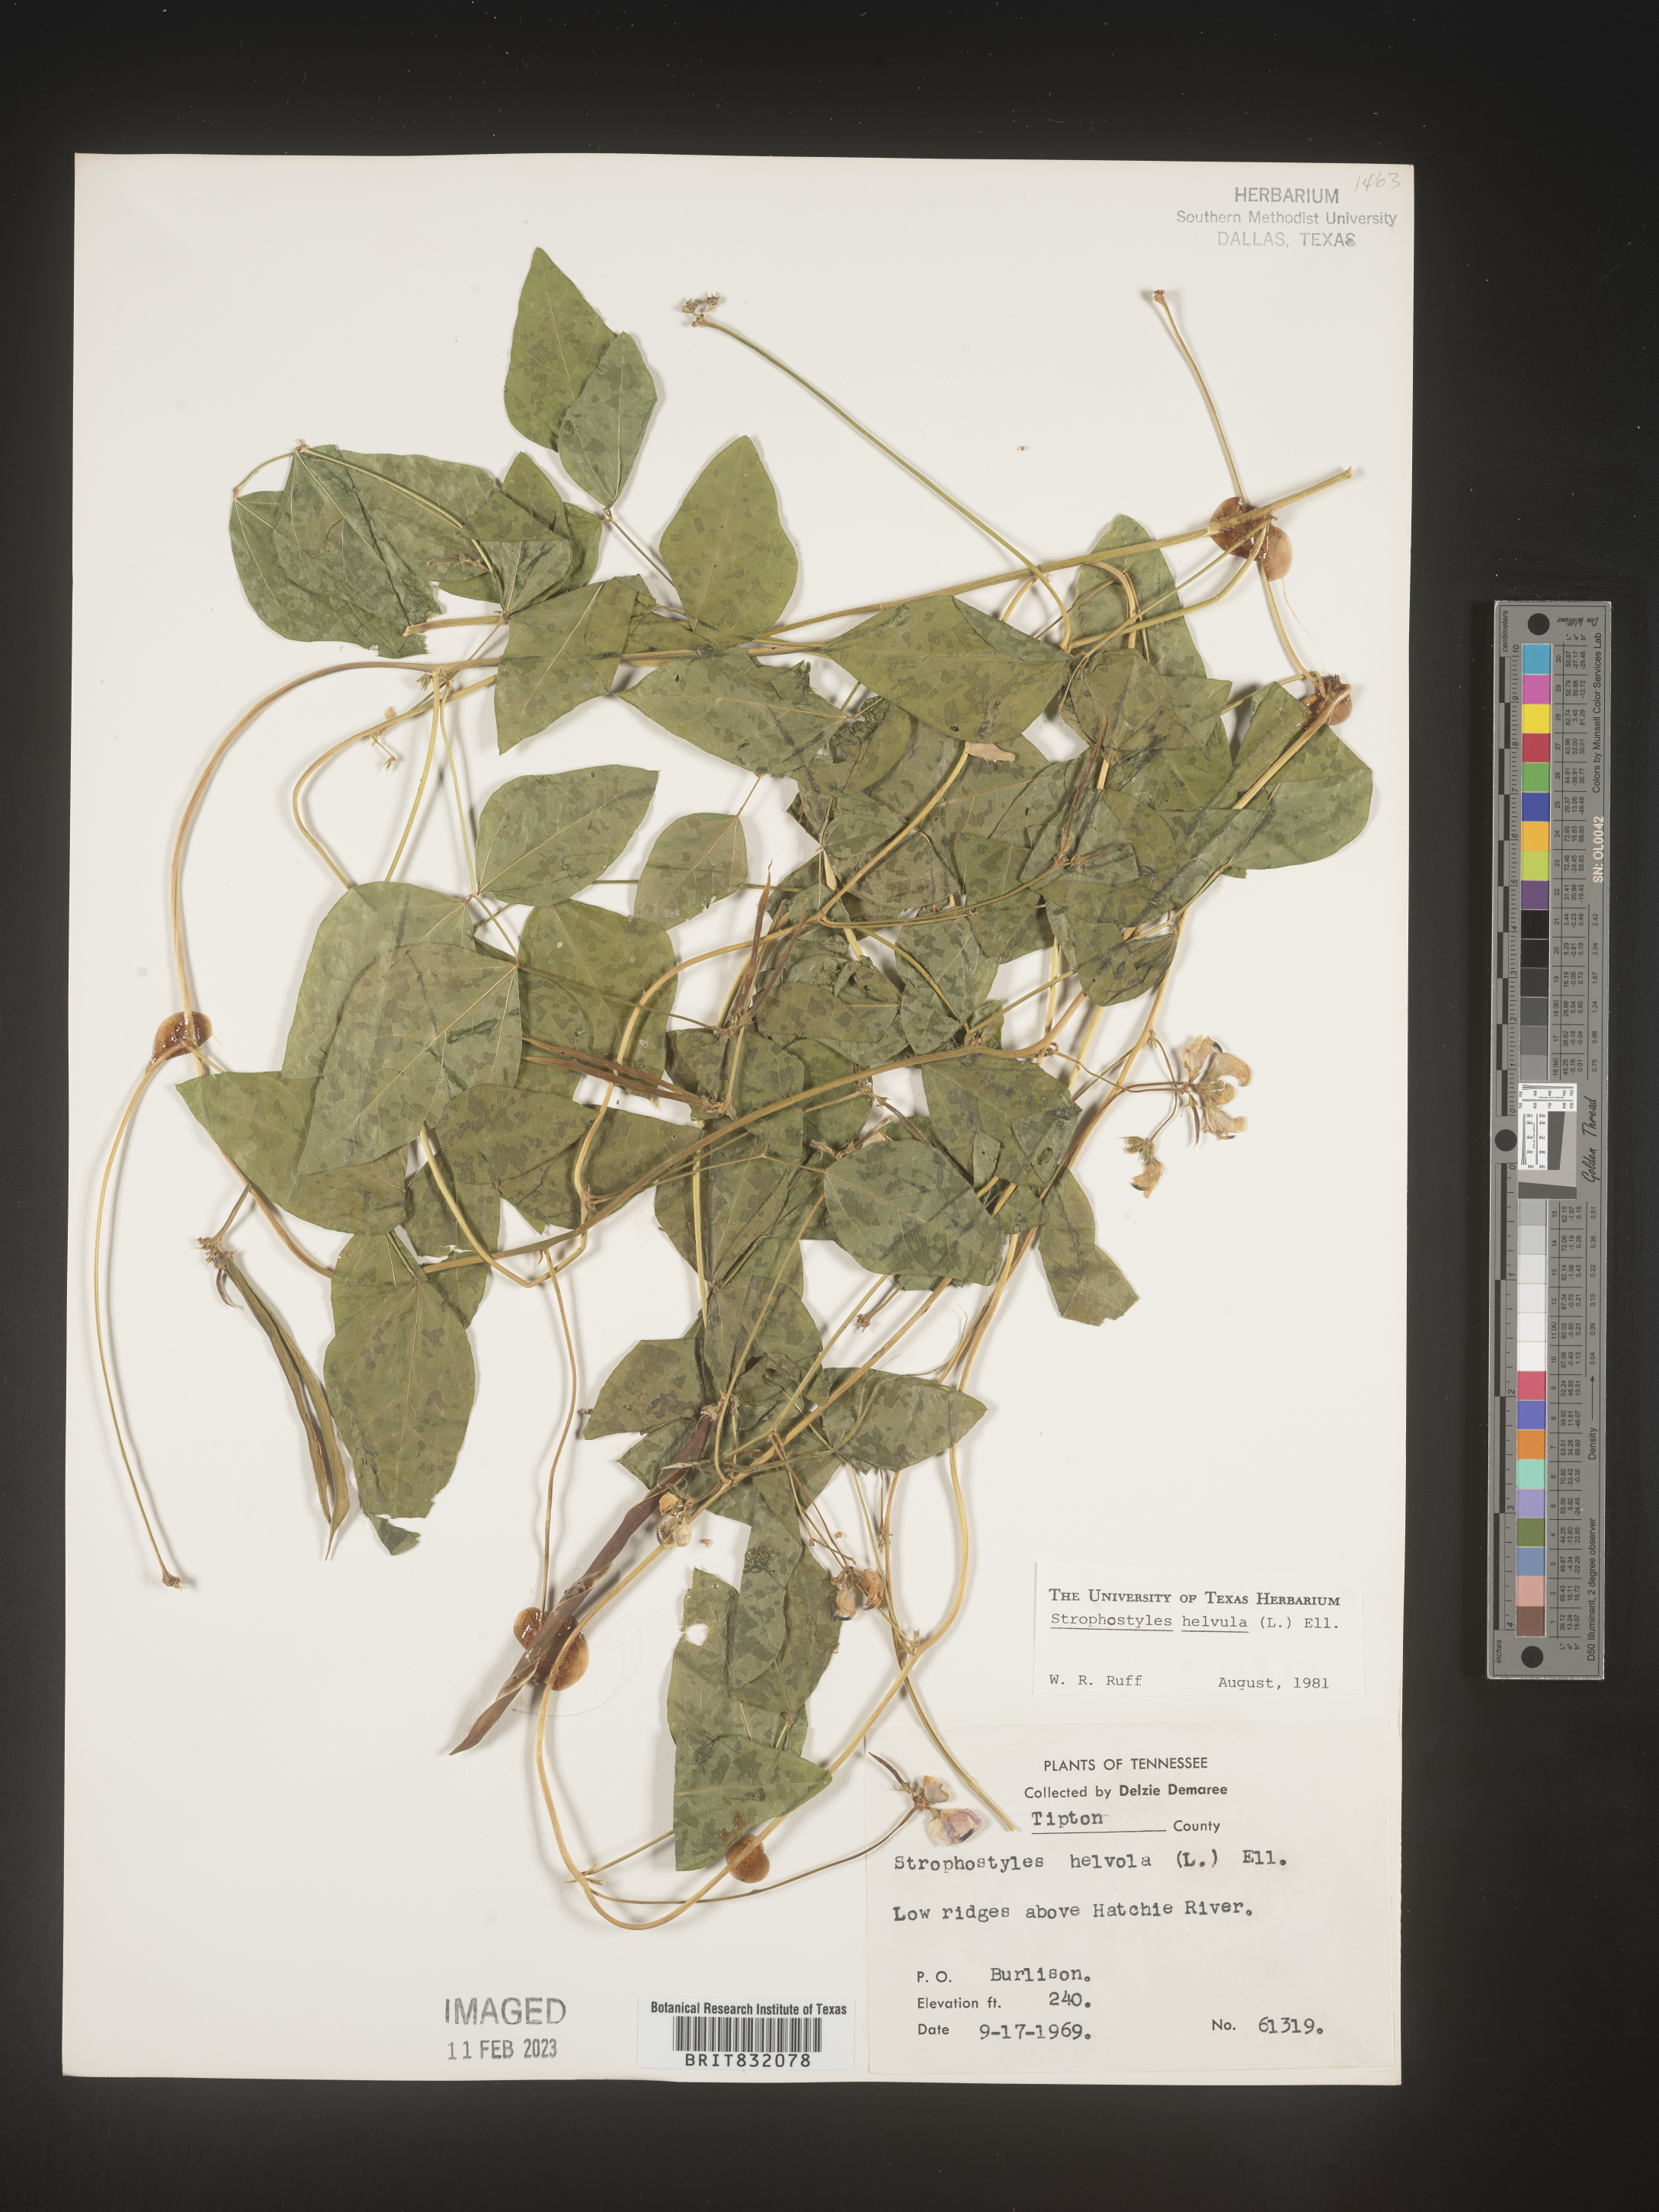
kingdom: Plantae
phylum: Tracheophyta
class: Magnoliopsida
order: Fabales
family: Fabaceae
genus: Strophostyles
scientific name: Strophostyles helvola
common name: Trailing wild bean
